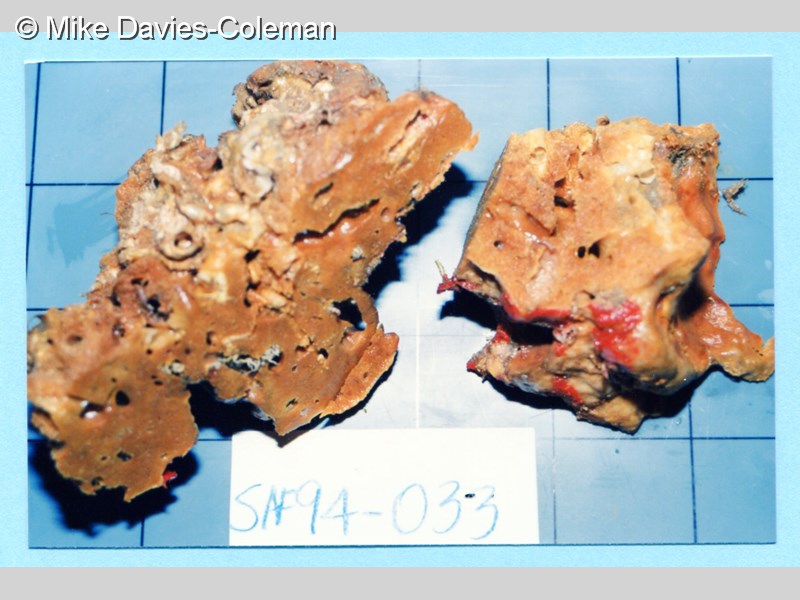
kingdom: Animalia
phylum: Porifera
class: Demospongiae
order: Tetractinellida
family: Geodiidae
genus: Penares
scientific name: Penares orthotriaena
